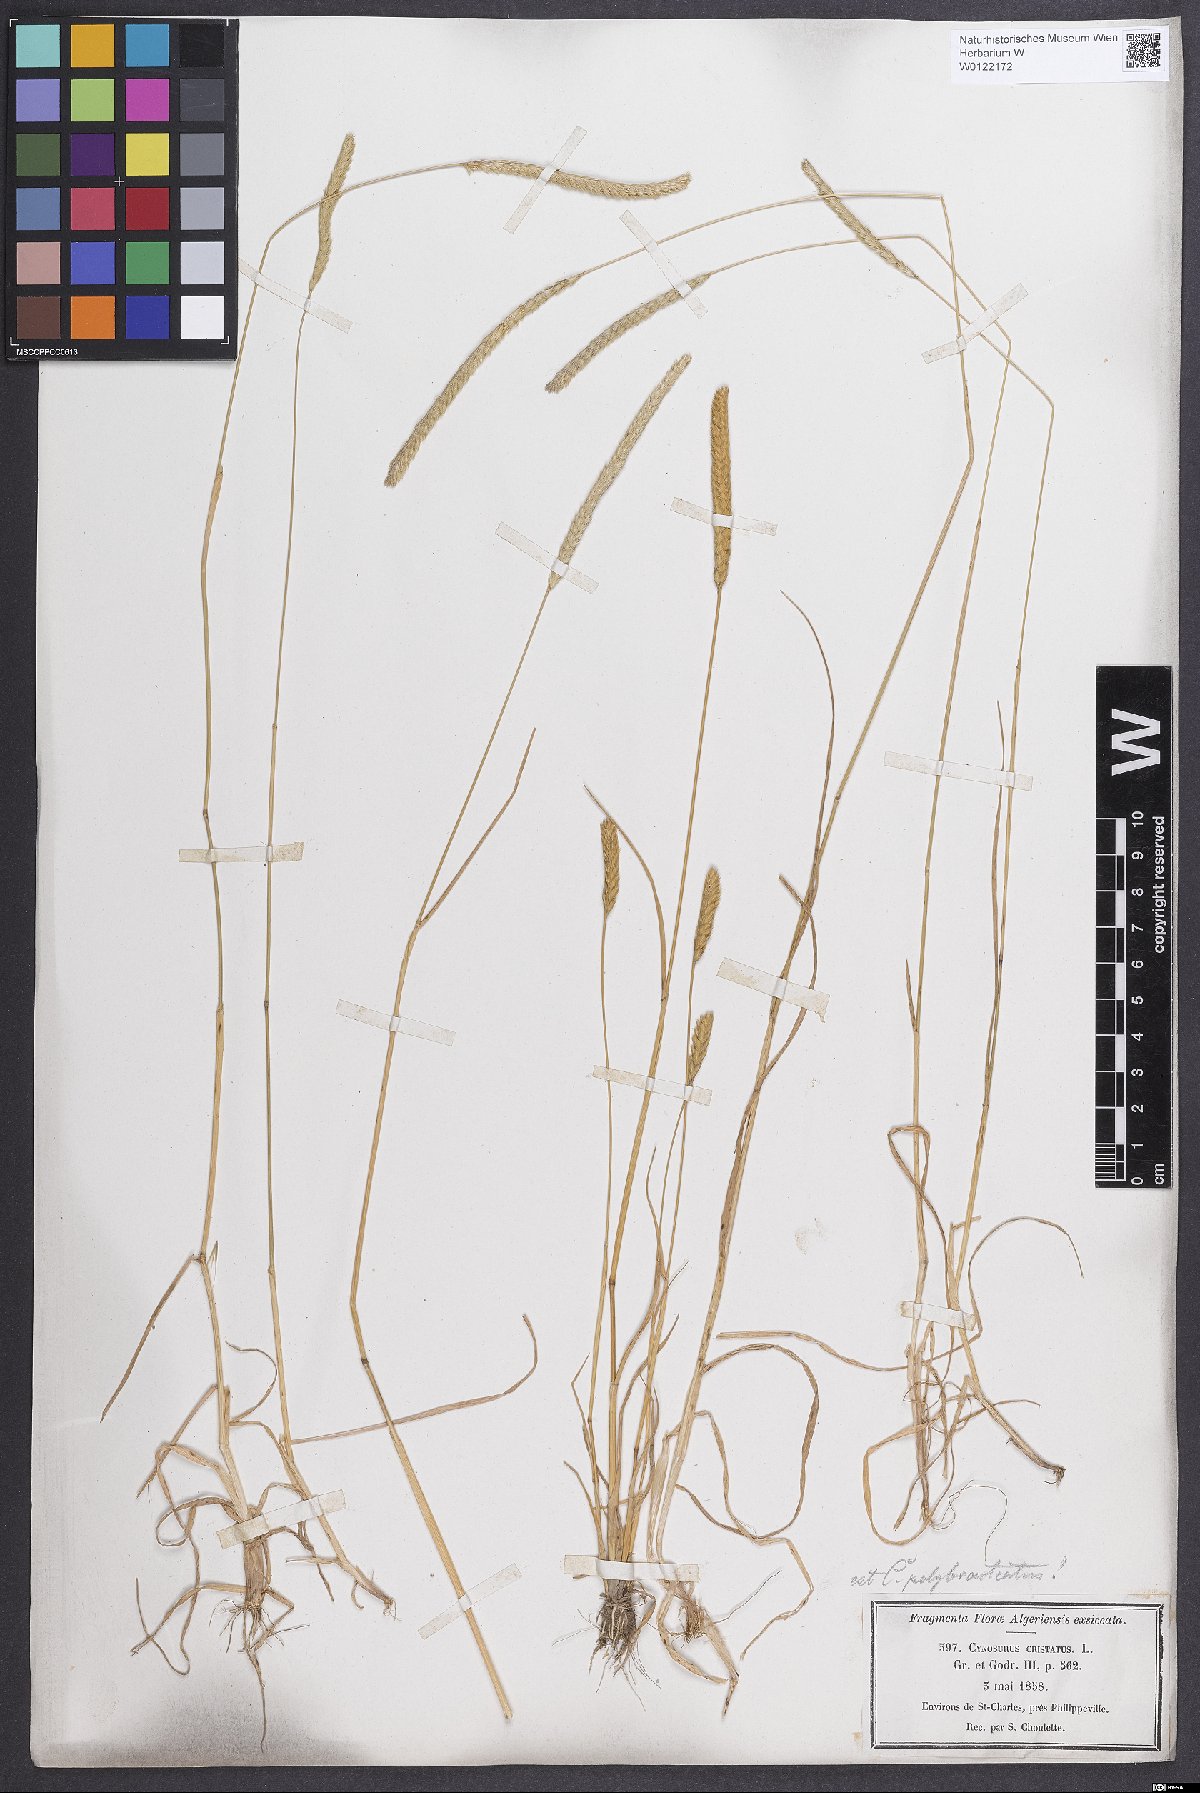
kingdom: Plantae
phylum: Tracheophyta
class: Liliopsida
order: Poales
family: Poaceae
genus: Cynosurus
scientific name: Cynosurus polybracteatus
